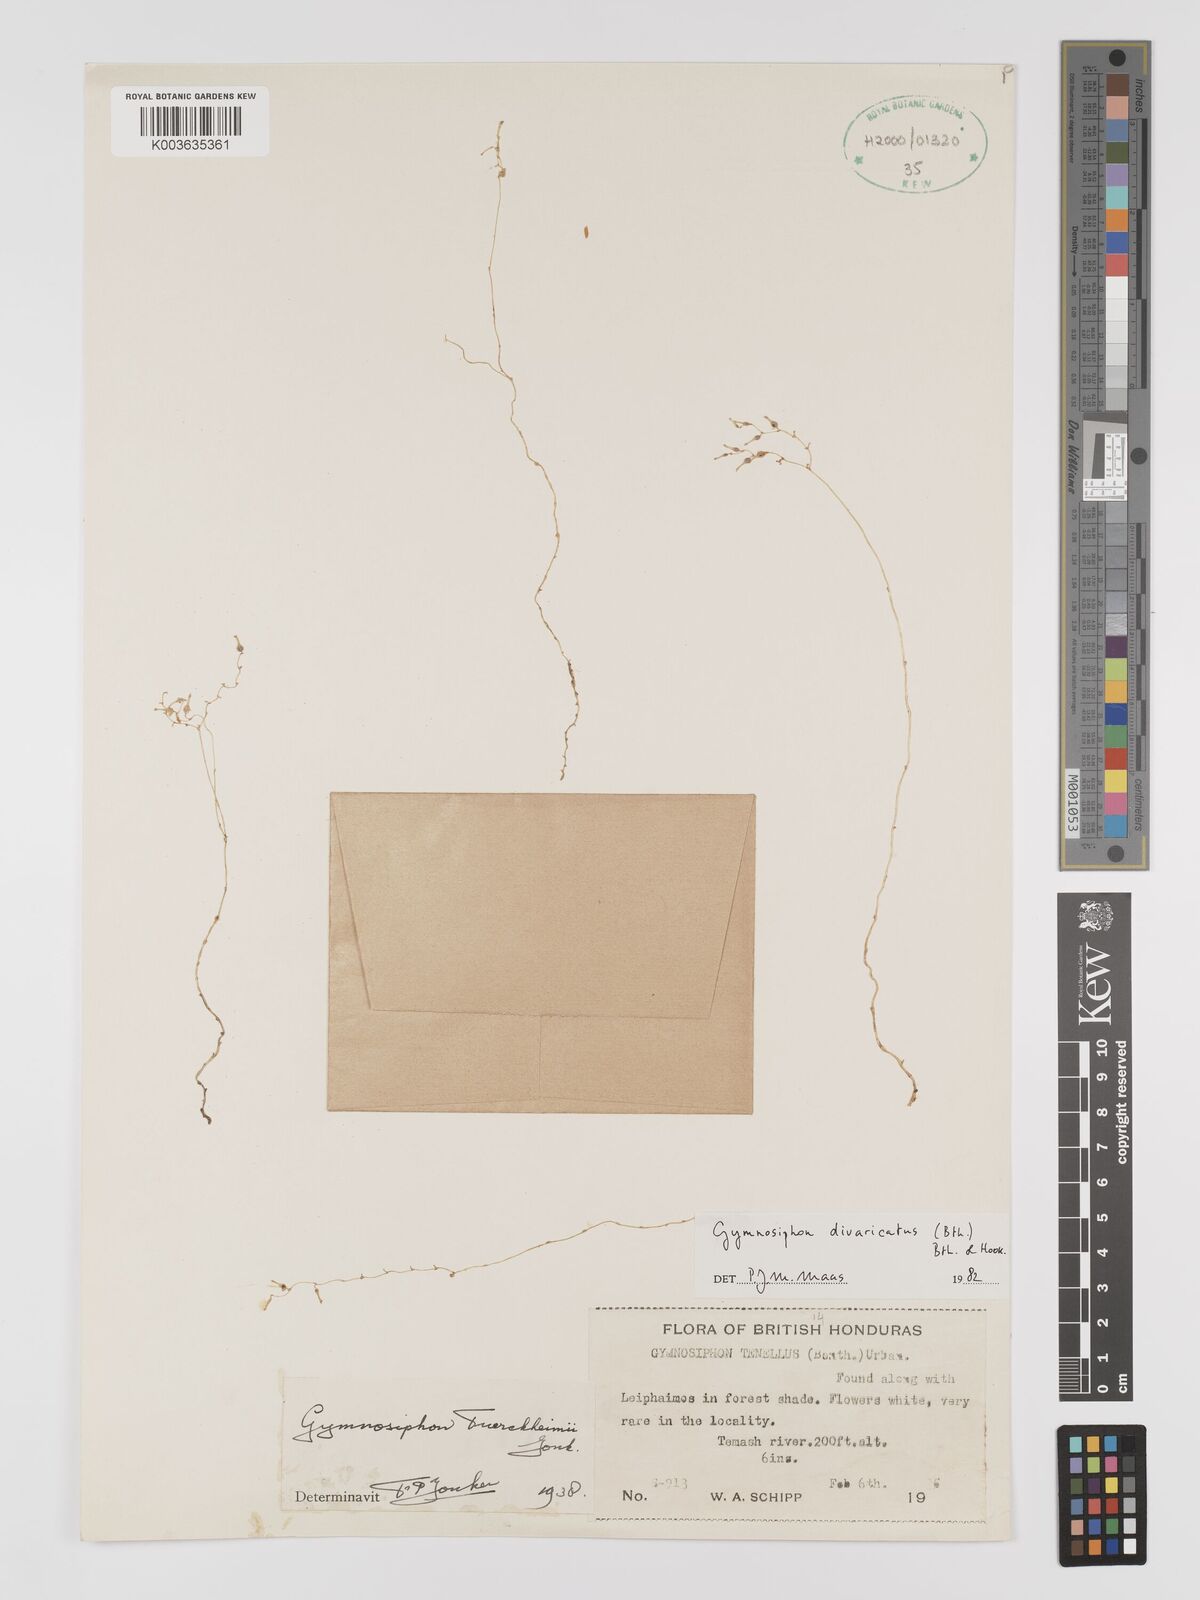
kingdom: Plantae
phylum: Tracheophyta
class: Liliopsida
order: Dioscoreales
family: Burmanniaceae
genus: Gymnosiphon
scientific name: Gymnosiphon divaricatus
